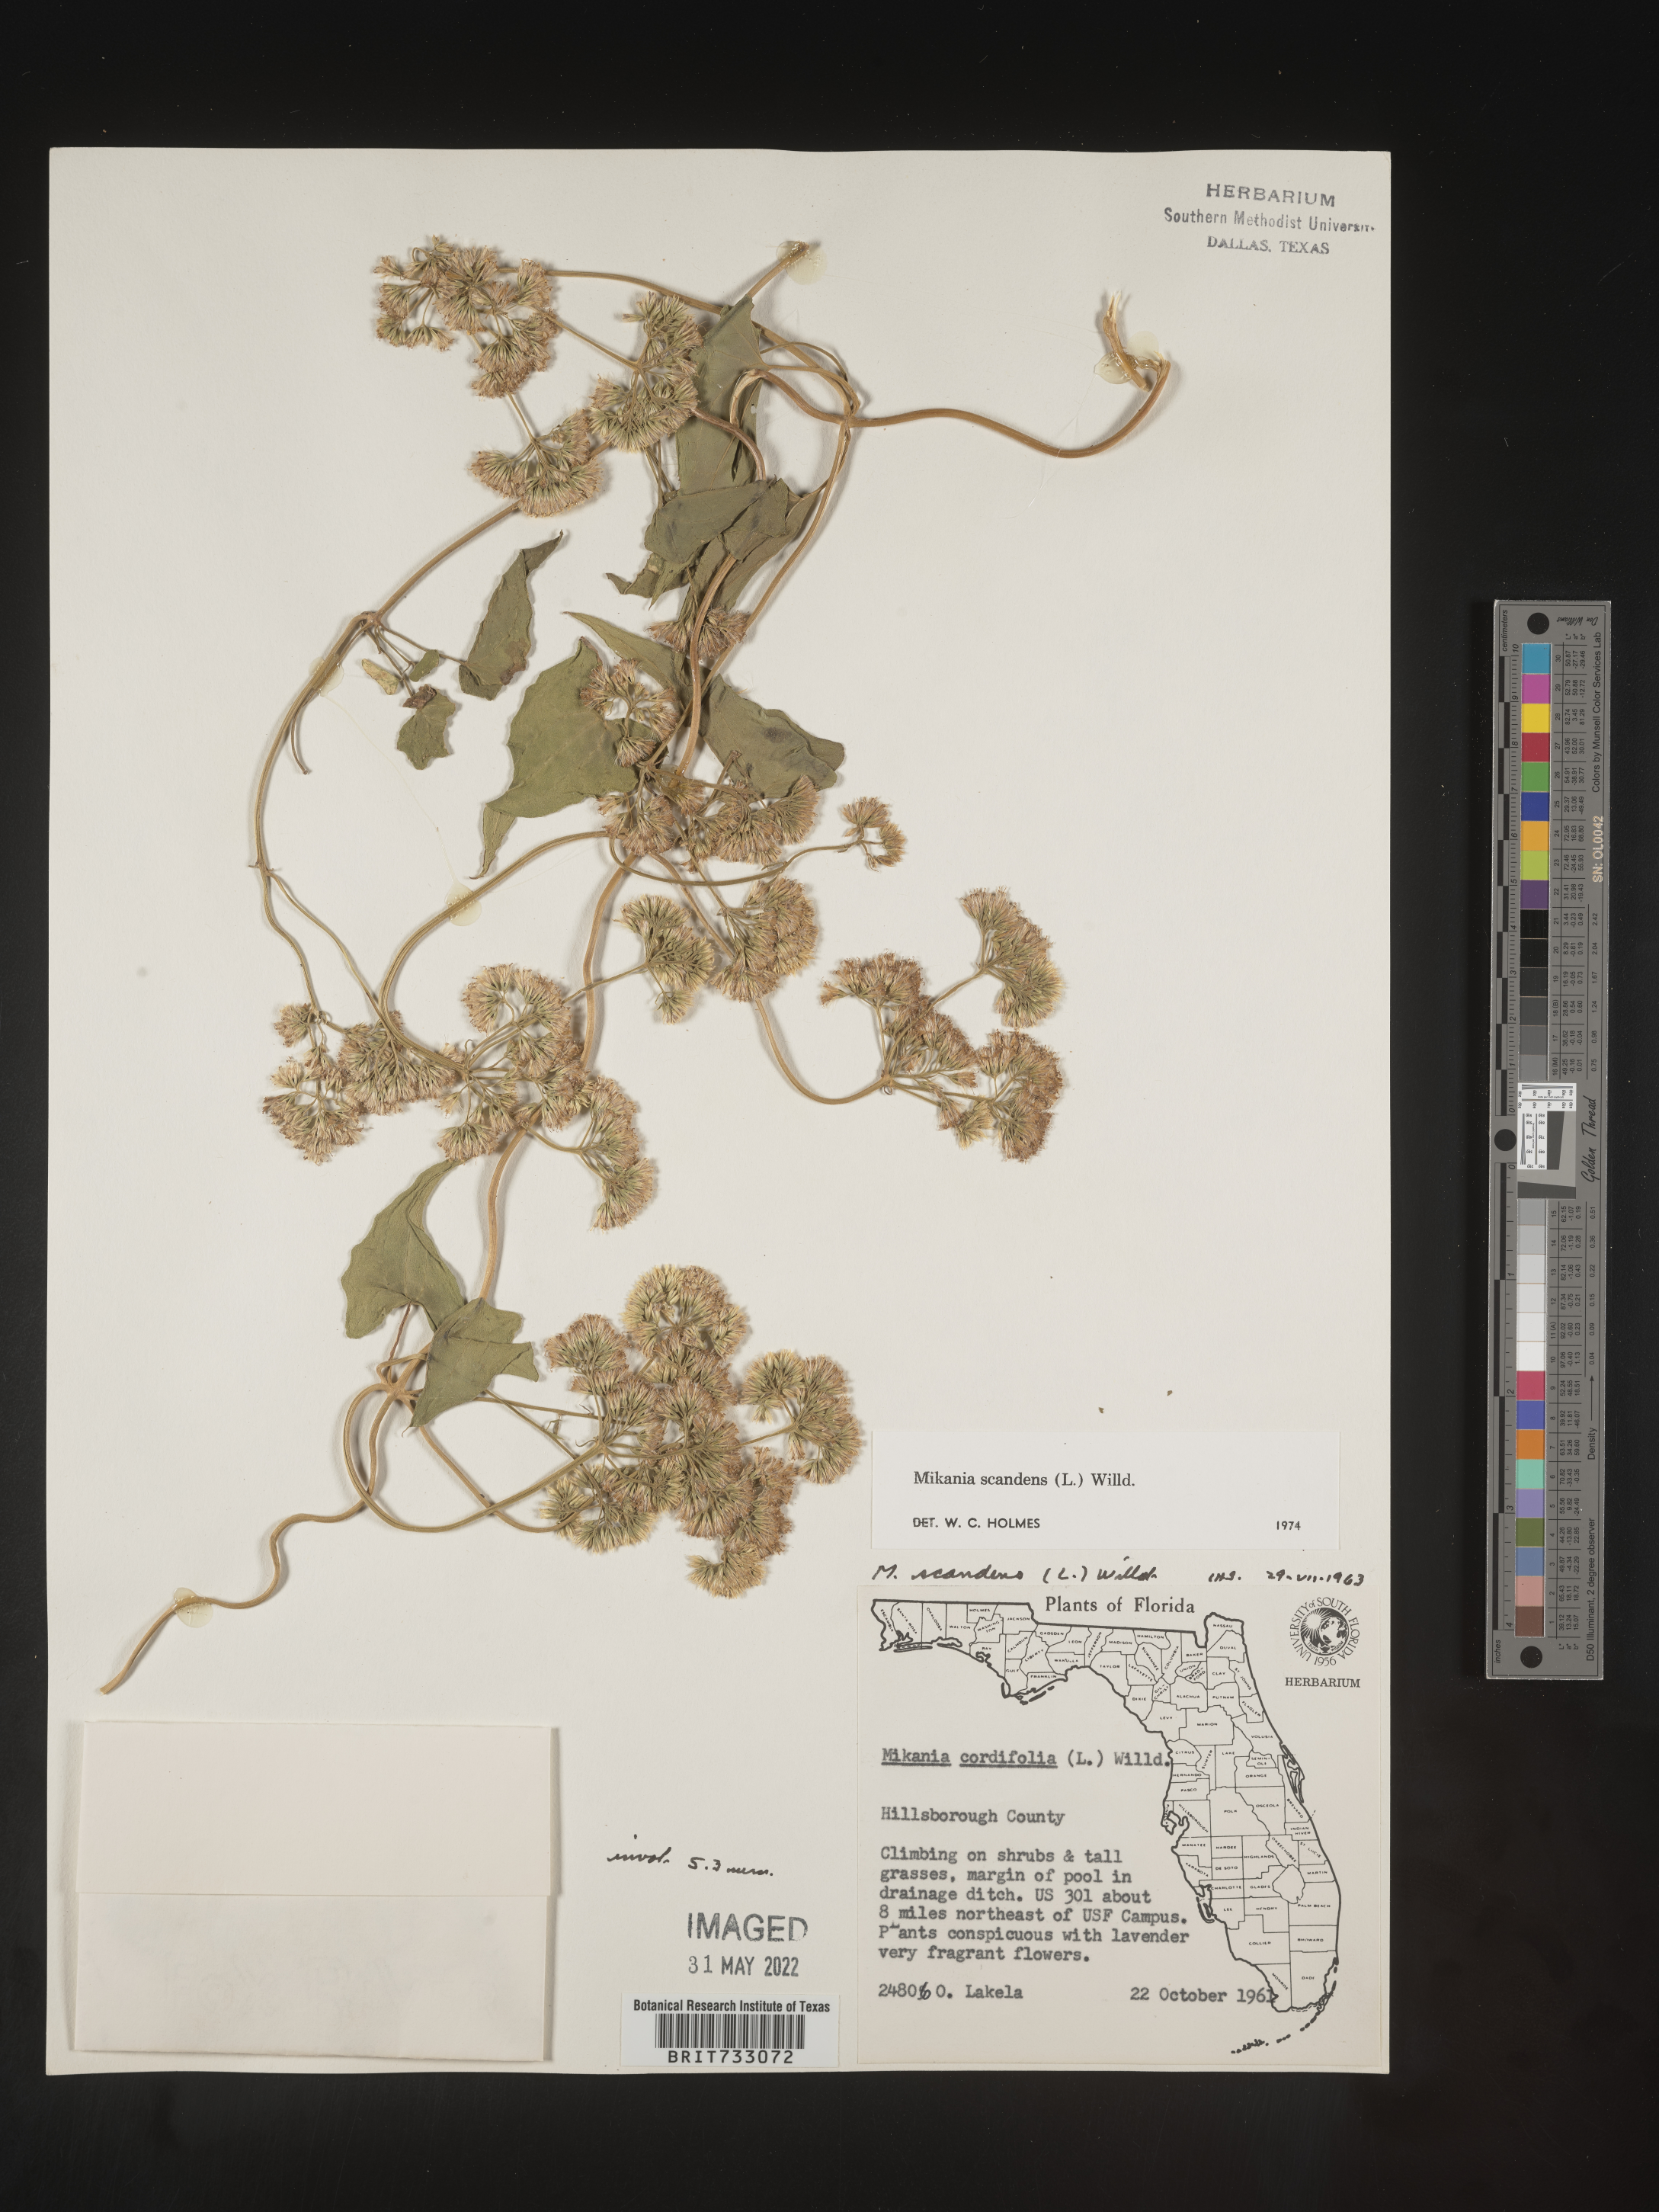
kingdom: Plantae
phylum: Tracheophyta
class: Magnoliopsida
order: Asterales
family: Asteraceae
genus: Mikania
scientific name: Mikania scandens
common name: Climbing hempvine
